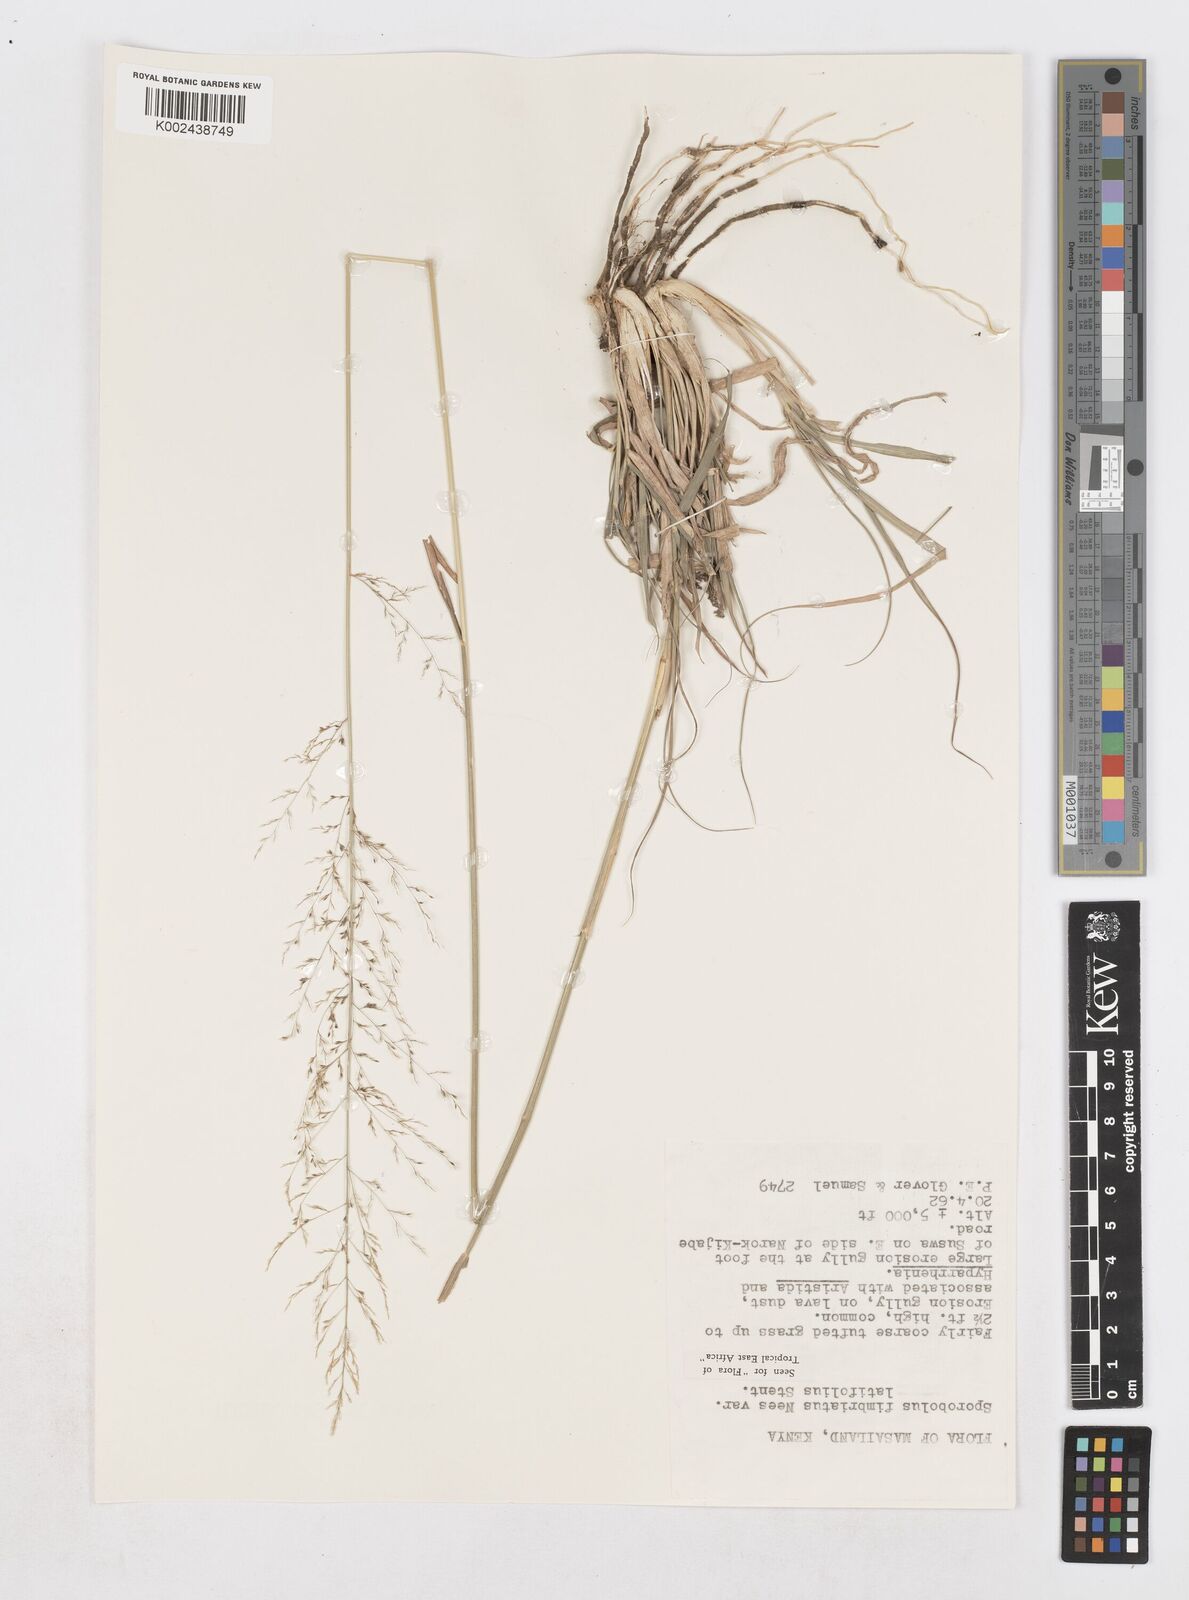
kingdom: Plantae
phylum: Tracheophyta
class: Liliopsida
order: Poales
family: Poaceae
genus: Sporobolus
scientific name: Sporobolus fimbriatus
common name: Fringed dropseed
